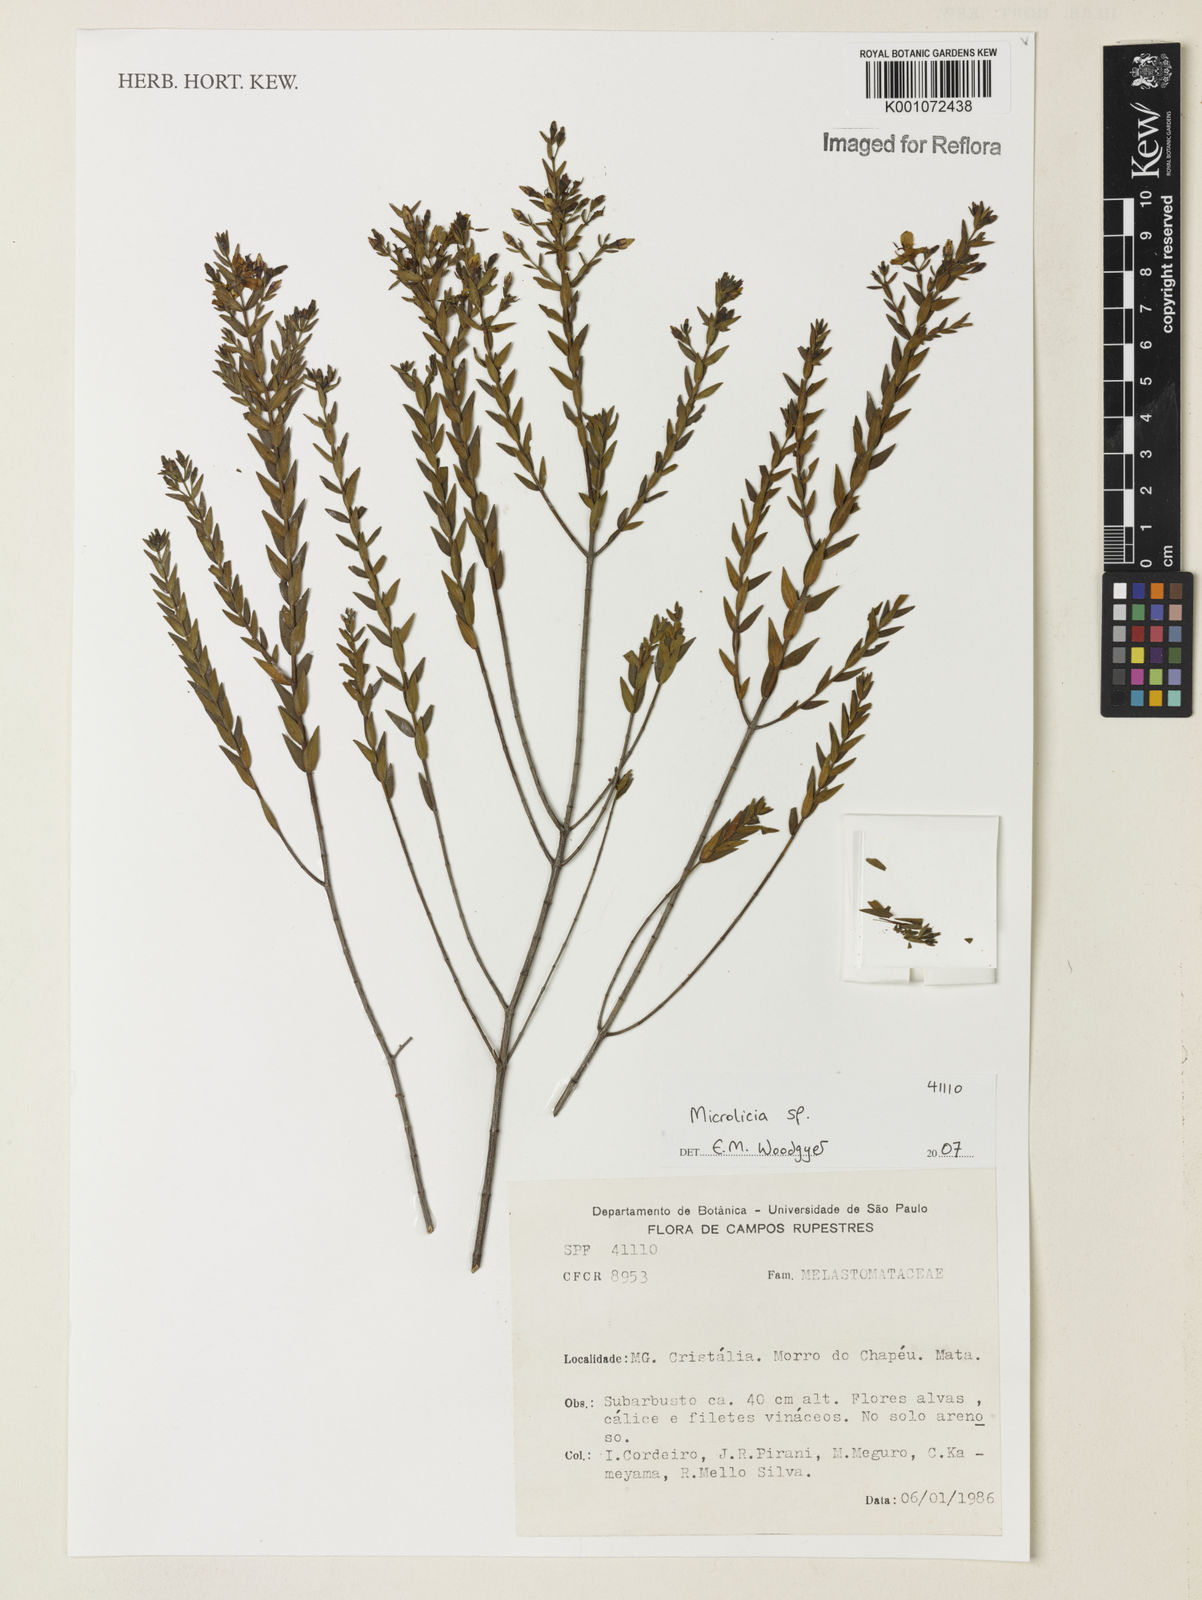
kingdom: Plantae
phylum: Tracheophyta
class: Magnoliopsida
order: Myrtales
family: Melastomataceae
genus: Microlicia
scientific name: Microlicia
